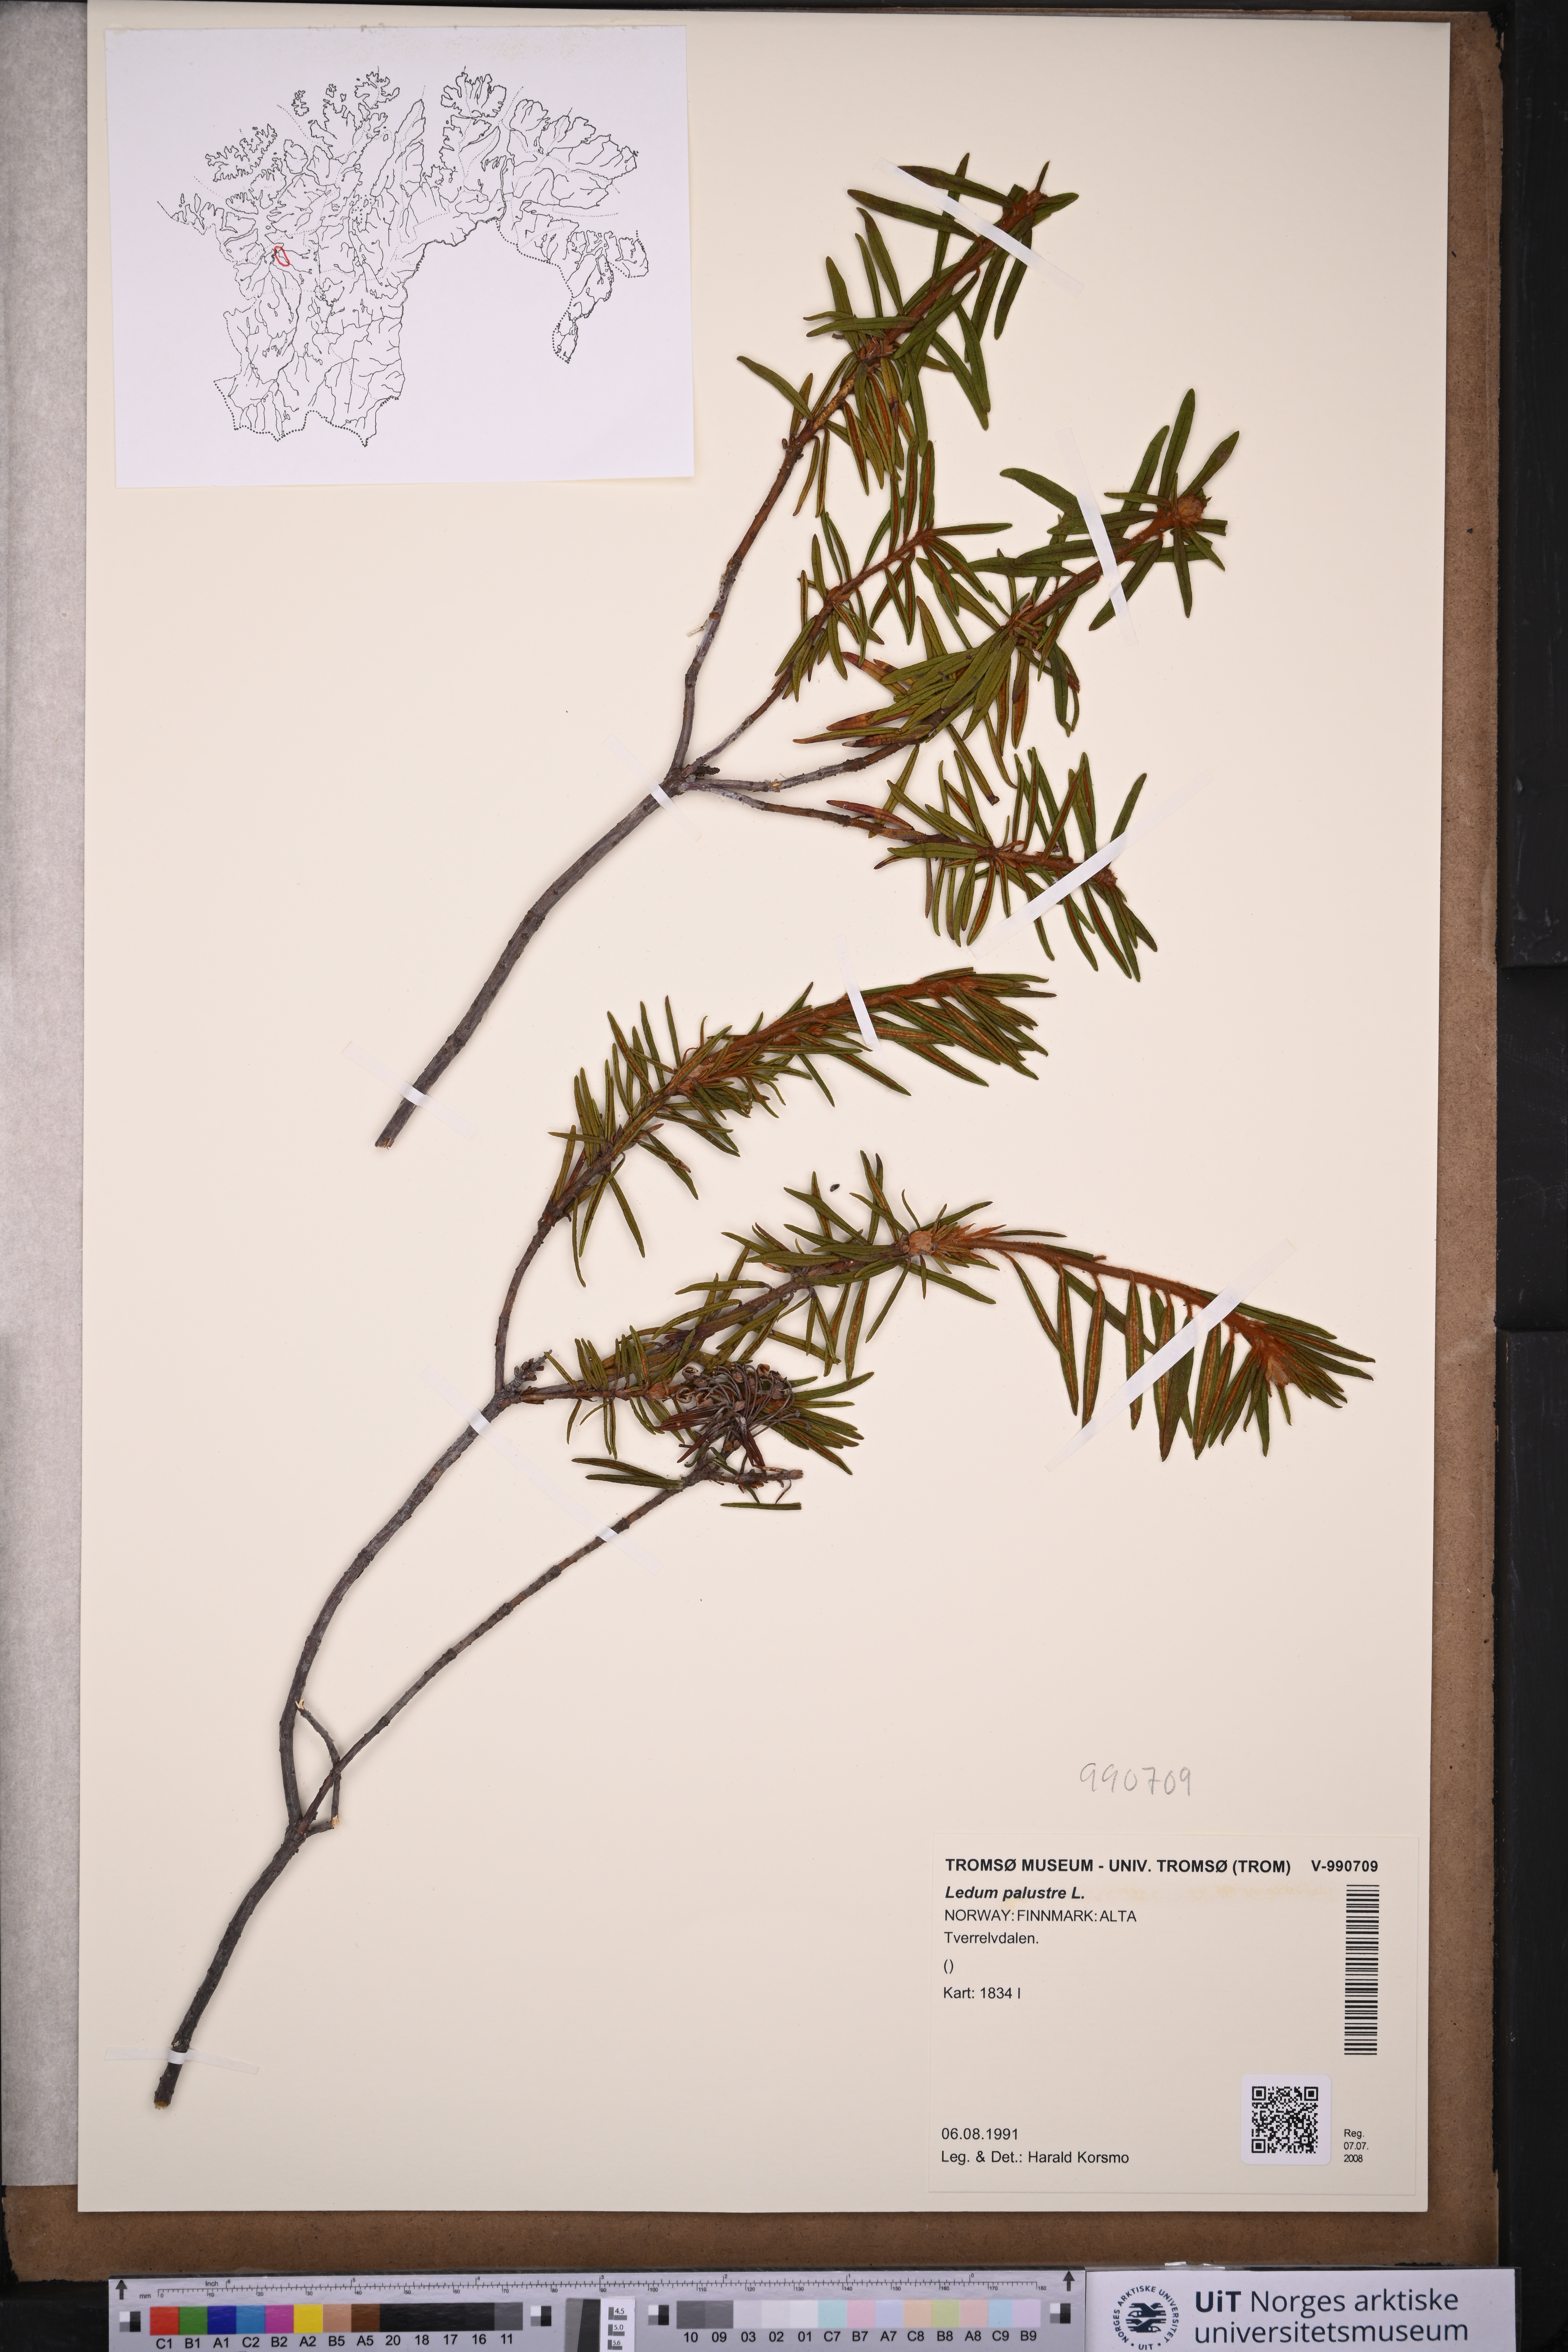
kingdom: Plantae
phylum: Tracheophyta
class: Magnoliopsida
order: Ericales
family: Ericaceae
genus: Rhododendron
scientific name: Rhododendron tomentosum
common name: Marsh labrador tea
